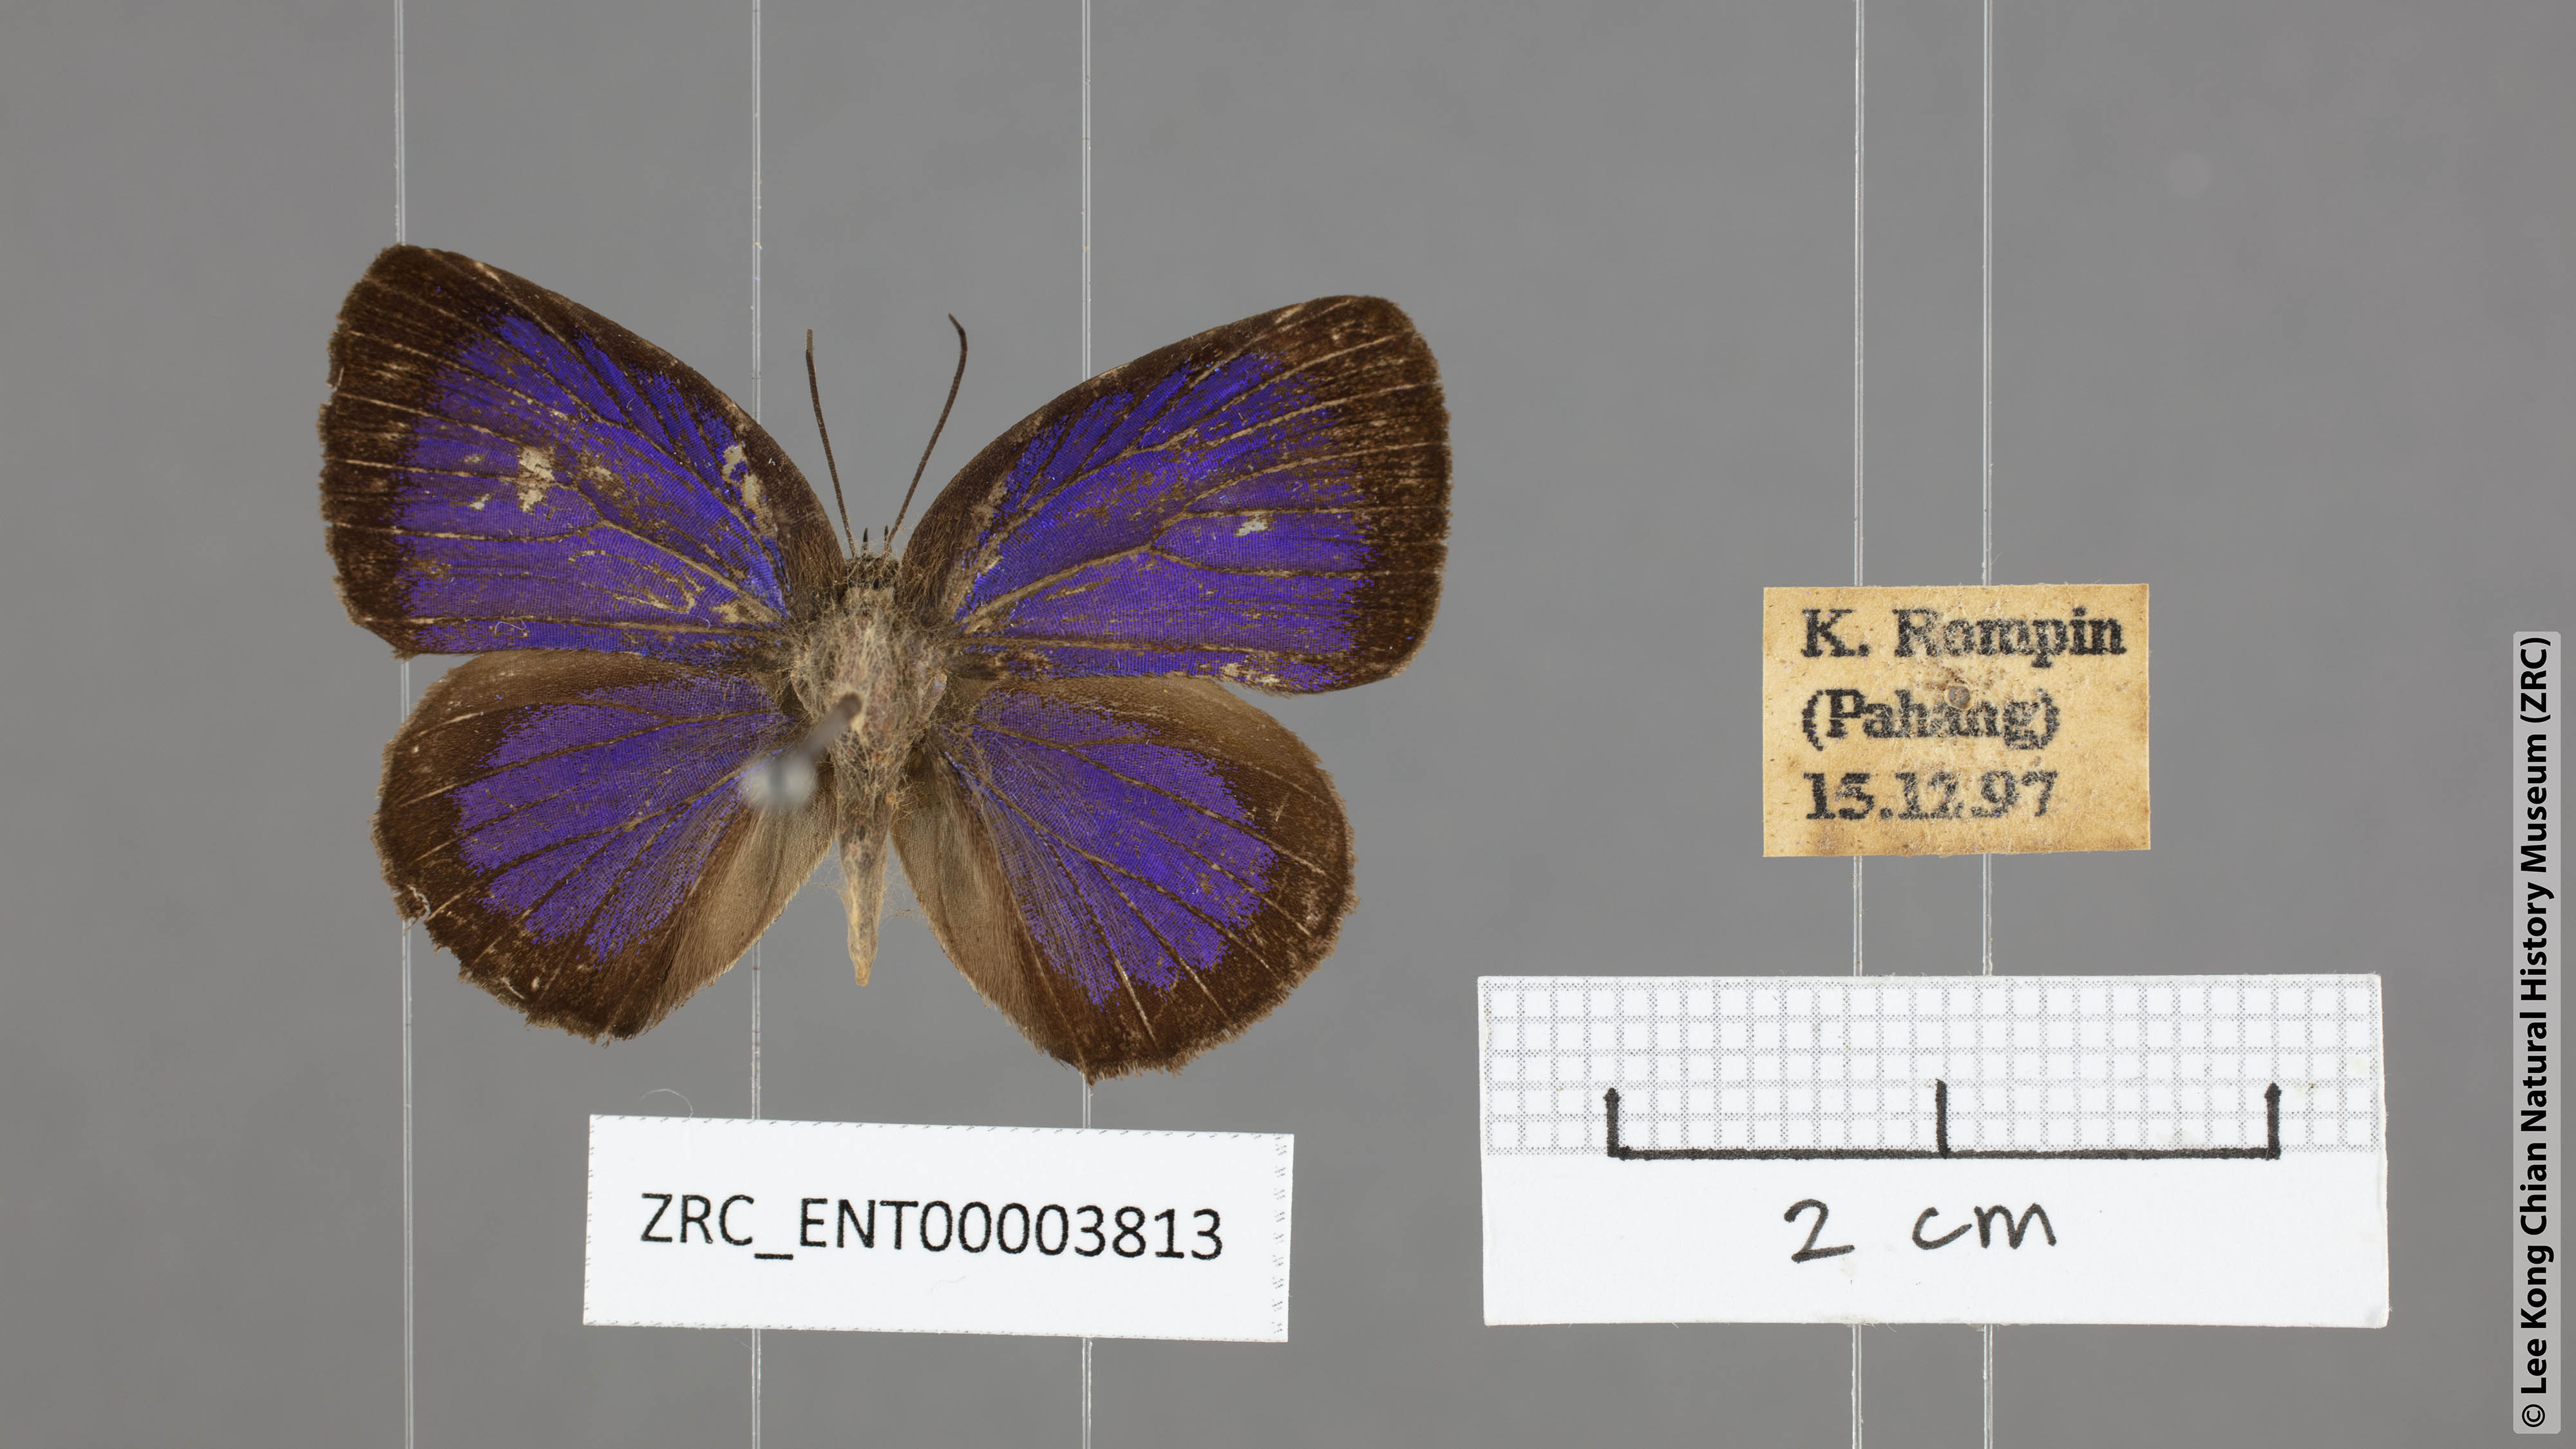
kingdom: Animalia
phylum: Arthropoda
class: Insecta
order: Lepidoptera
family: Lycaenidae
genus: Arhopala
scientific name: Arhopala agesilaus
